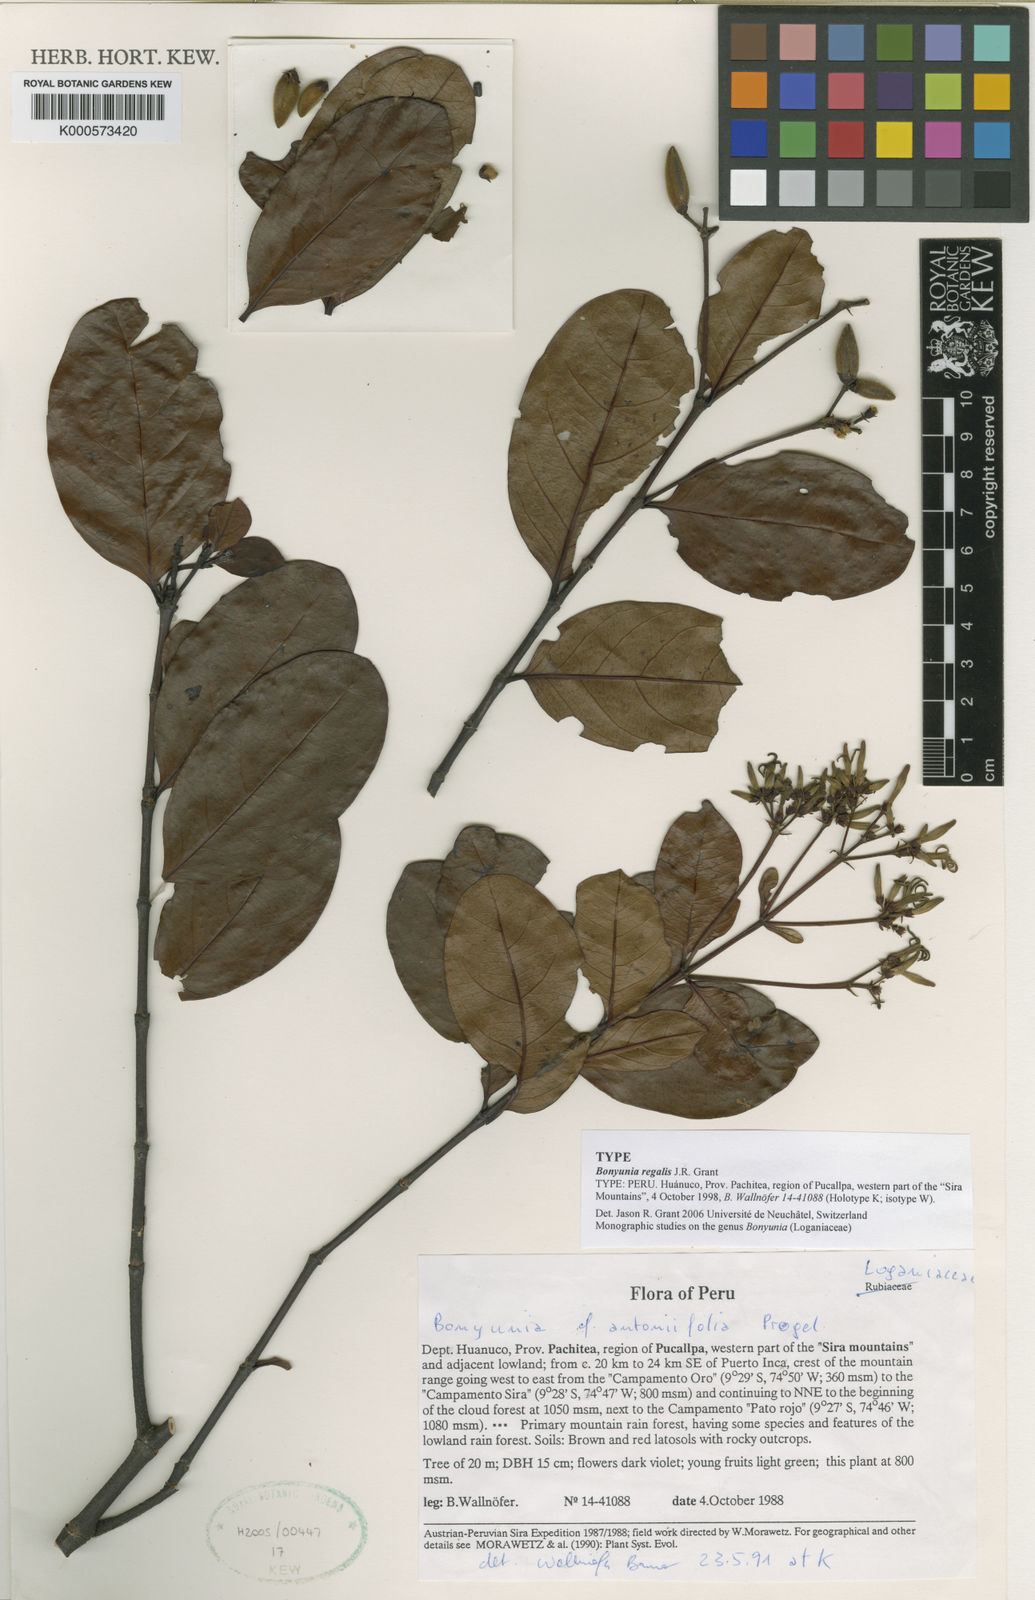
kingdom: Plantae
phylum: Tracheophyta
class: Magnoliopsida
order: Gentianales
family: Loganiaceae
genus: Bonyunia
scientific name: Bonyunia pulchra
